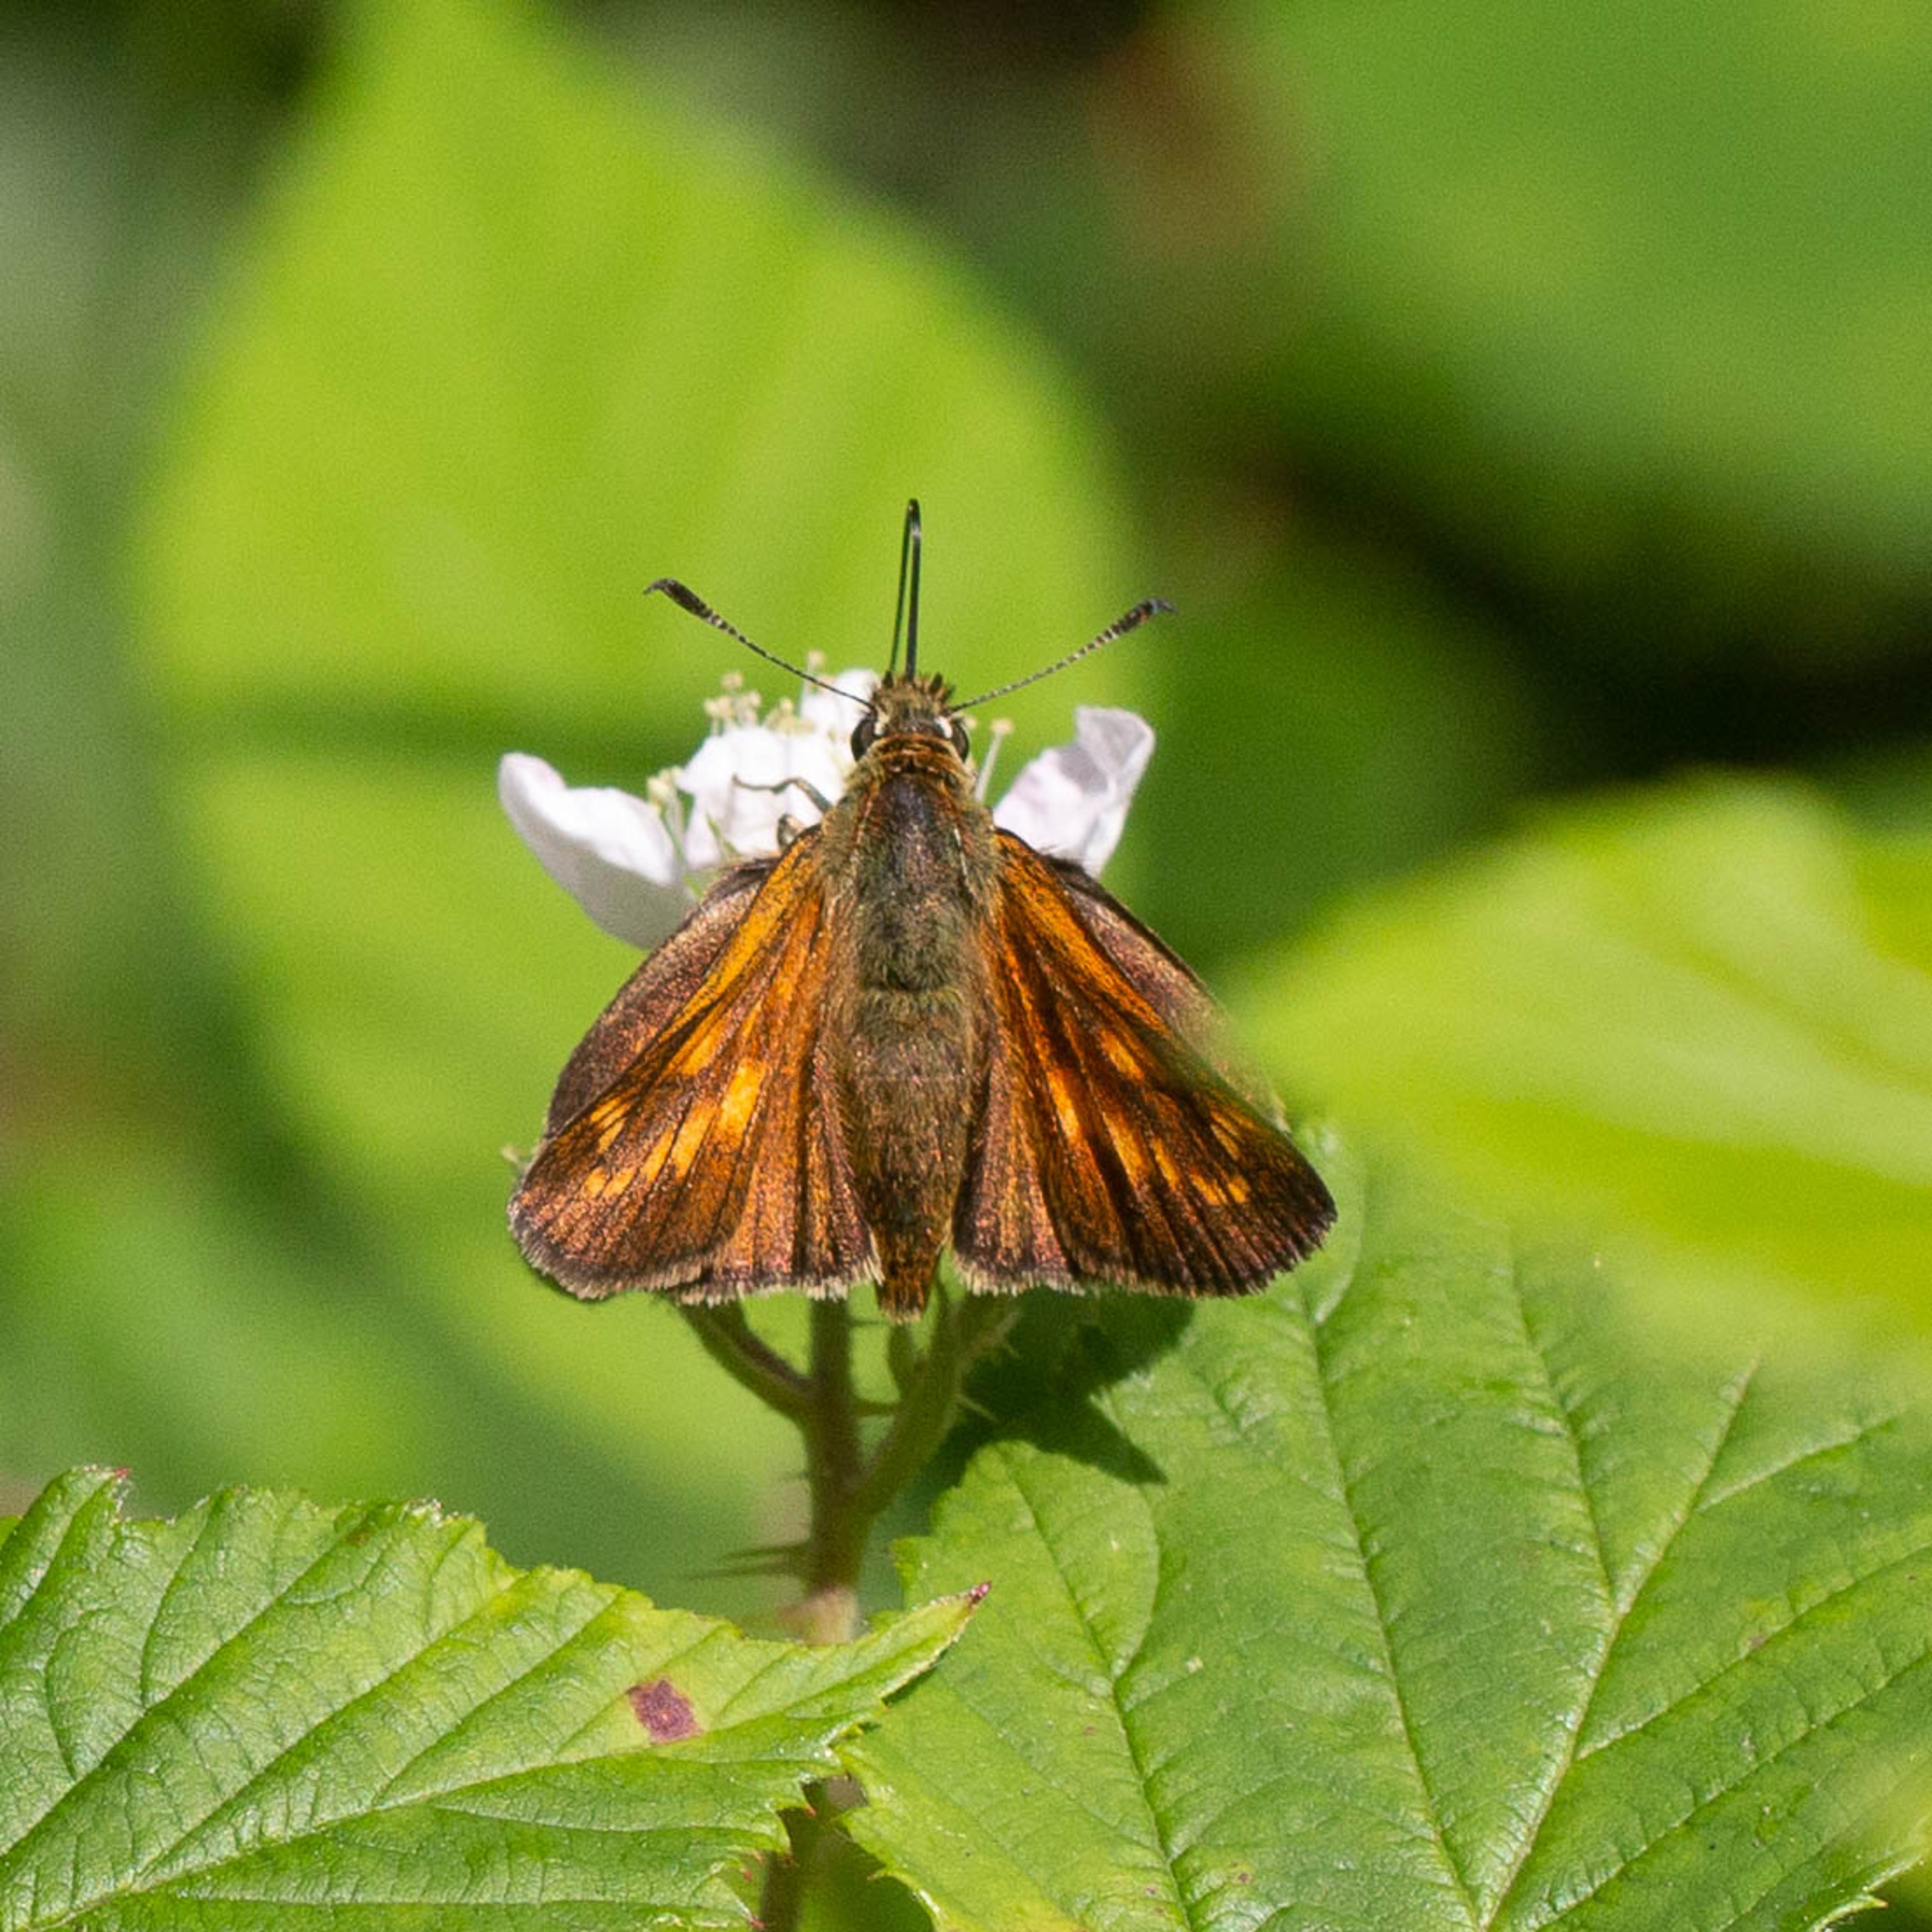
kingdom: Animalia
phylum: Arthropoda
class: Insecta
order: Lepidoptera
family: Hesperiidae
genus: Ochlodes
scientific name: Ochlodes venata
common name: Stor bredpande
